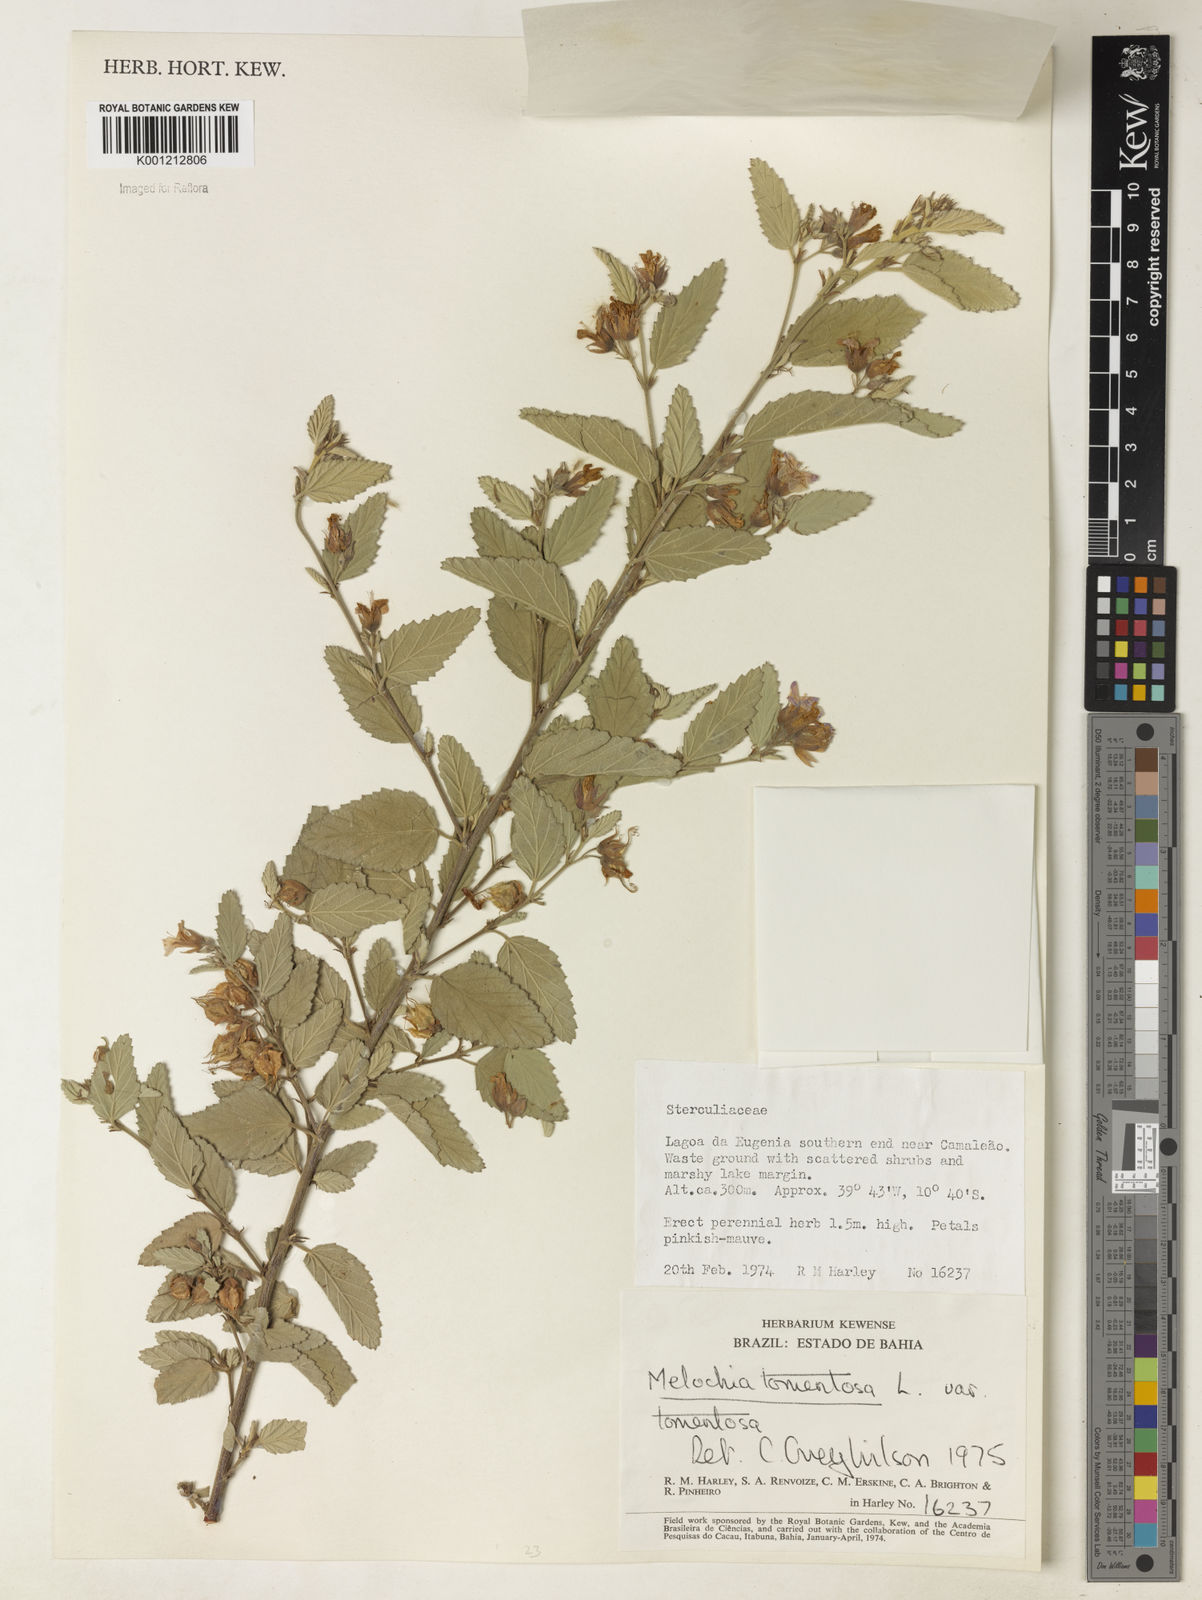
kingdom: Plantae
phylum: Tracheophyta
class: Magnoliopsida
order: Malvales
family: Malvaceae
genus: Melochia
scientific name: Melochia tomentosa
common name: Black torch
